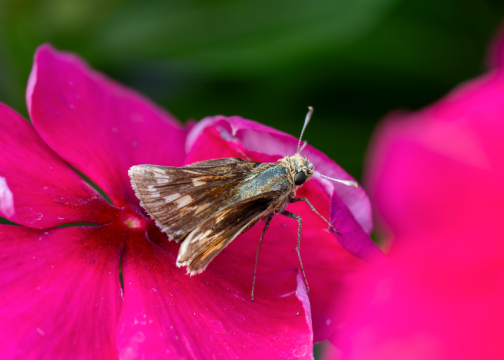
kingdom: Animalia
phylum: Arthropoda
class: Insecta
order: Lepidoptera
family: Hesperiidae
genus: Polites
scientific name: Polites coras
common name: Peck's Skipper
